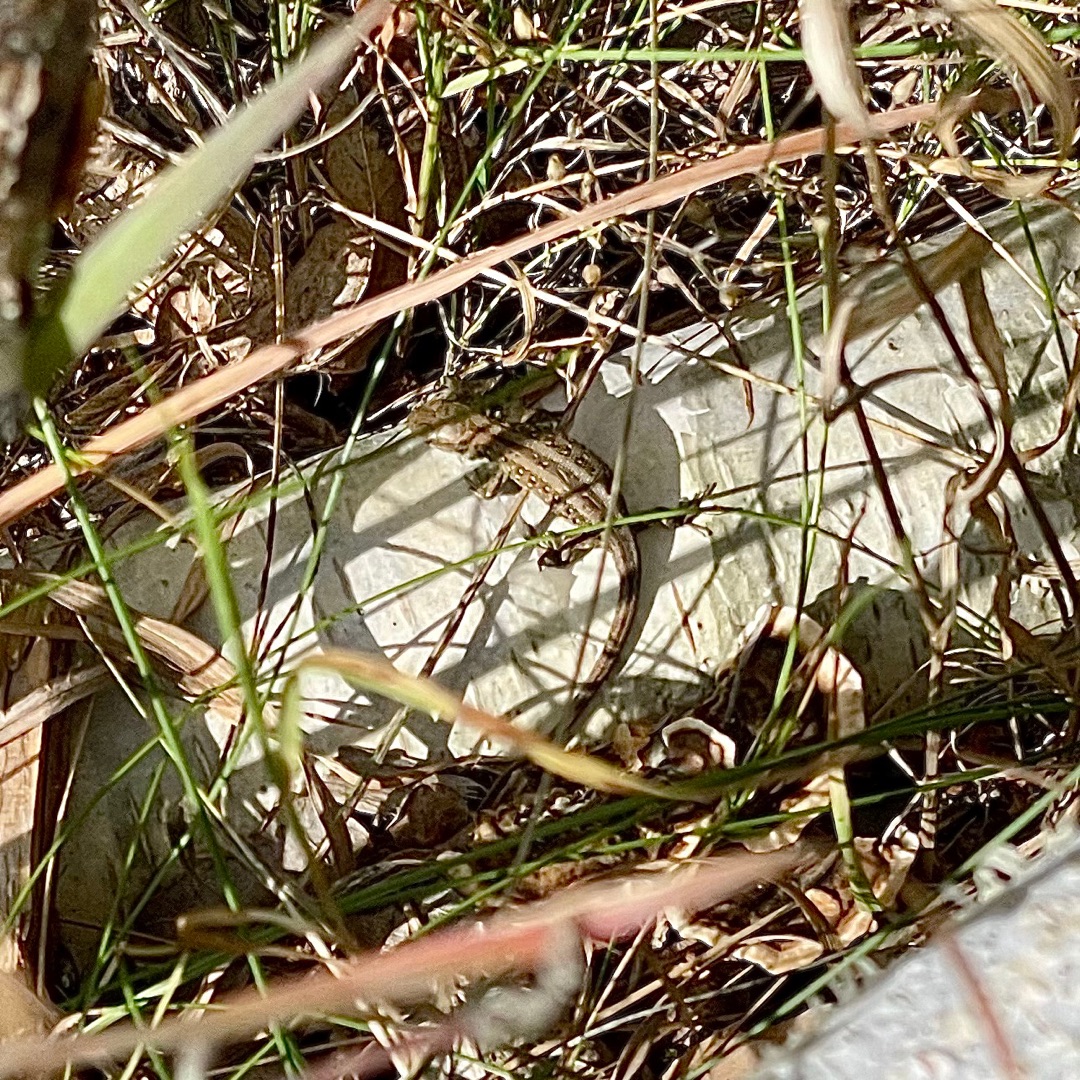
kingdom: Animalia
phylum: Chordata
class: Squamata
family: Lacertidae
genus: Lacerta
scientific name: Lacerta agilis
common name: Markfirben
